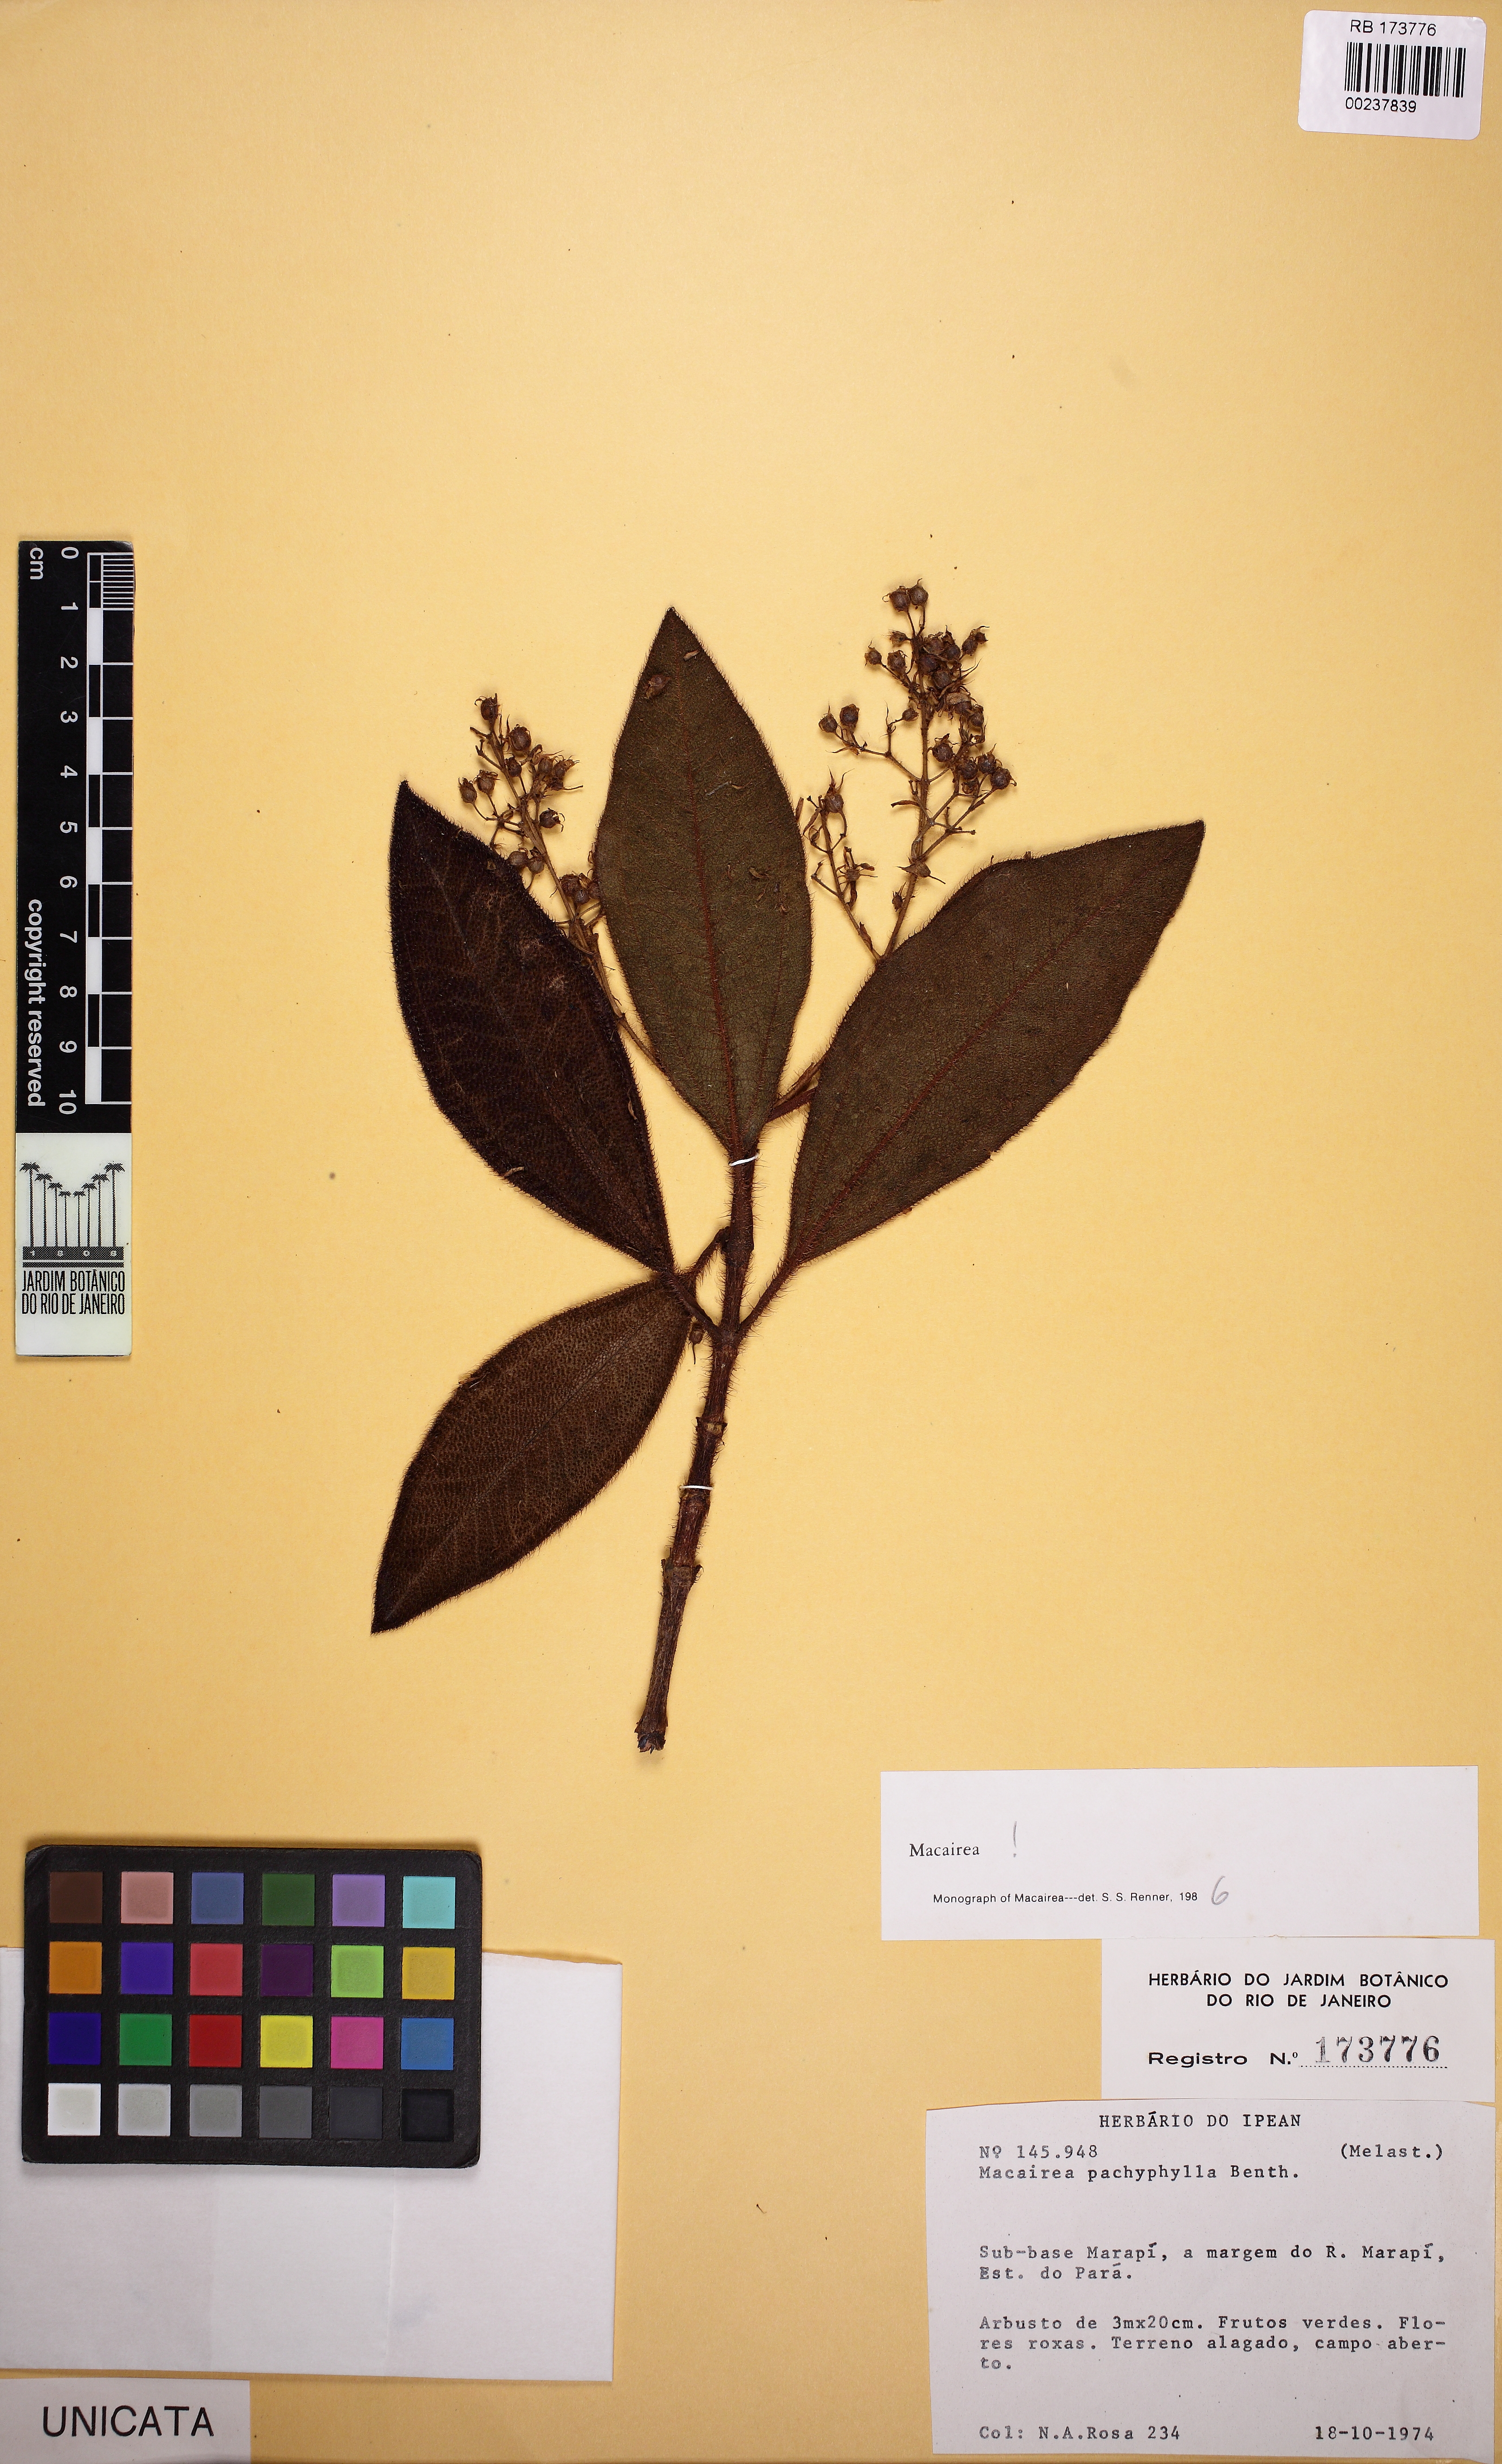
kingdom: Plantae
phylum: Tracheophyta
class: Magnoliopsida
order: Myrtales
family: Melastomataceae
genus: Macairea
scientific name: Macairea pachyphylla
